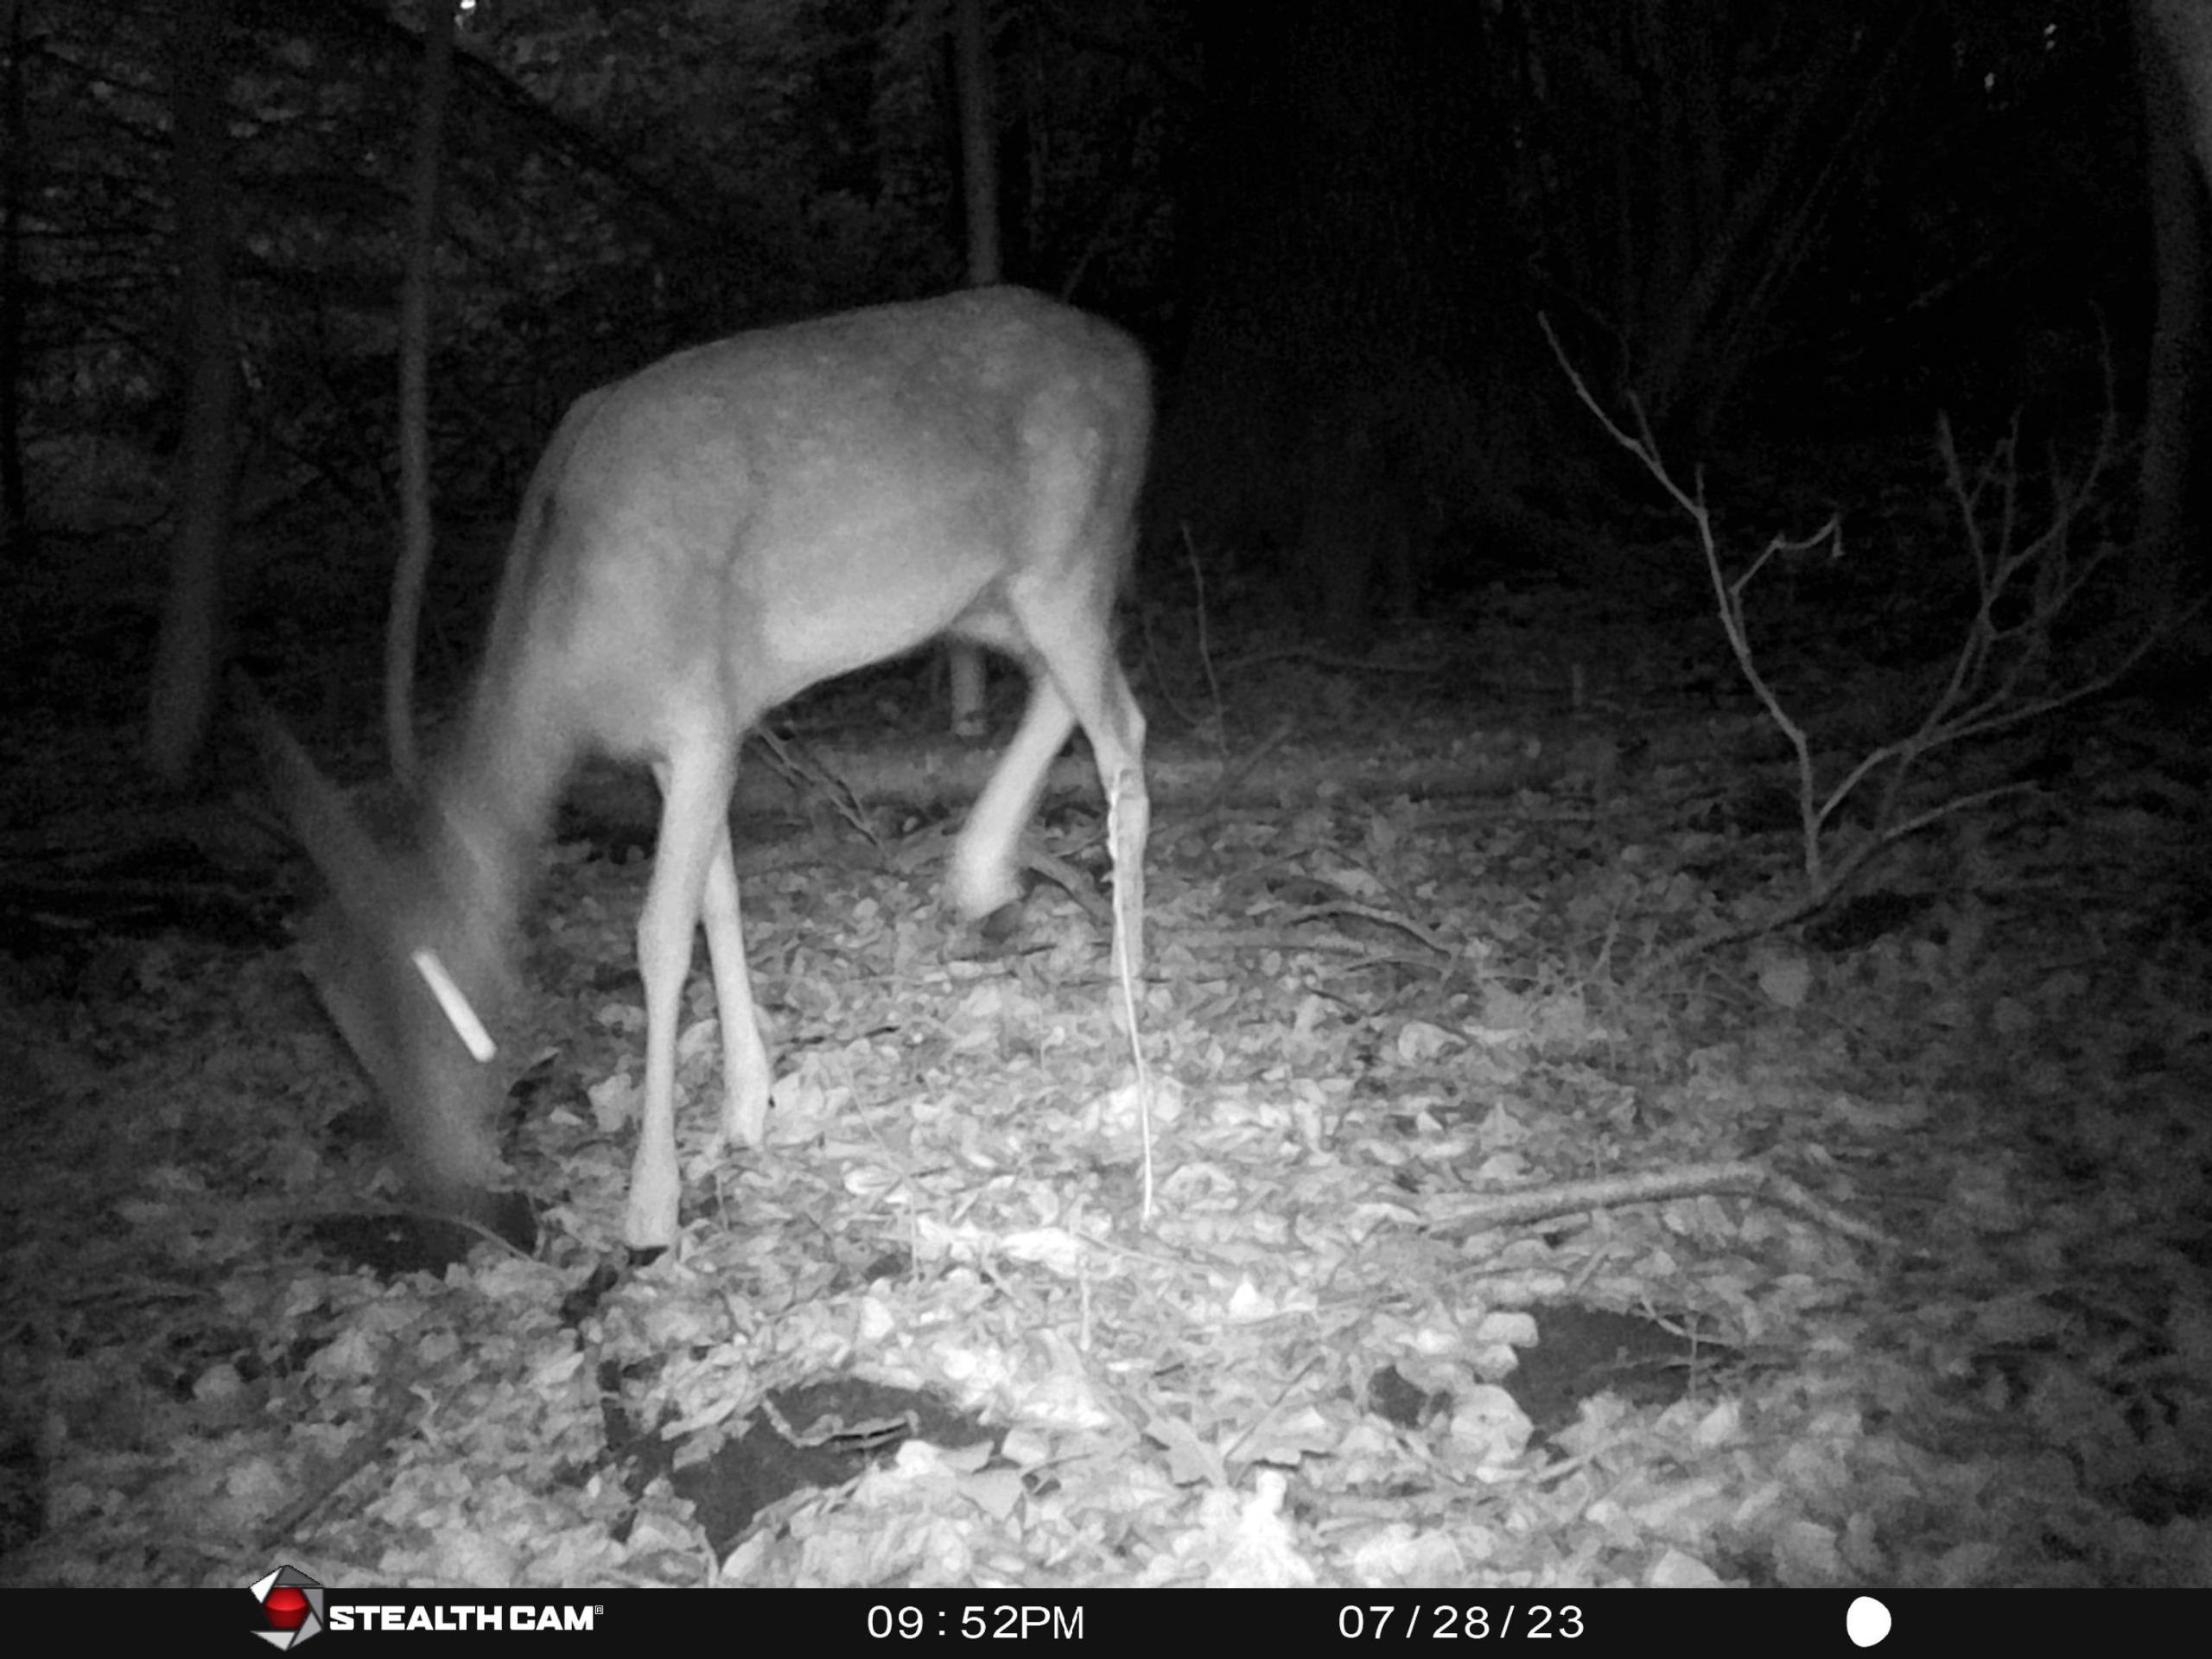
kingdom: Animalia
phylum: Chordata
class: Mammalia
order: Artiodactyla
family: Cervidae
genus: Dama
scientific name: Dama dama
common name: Dådyr
